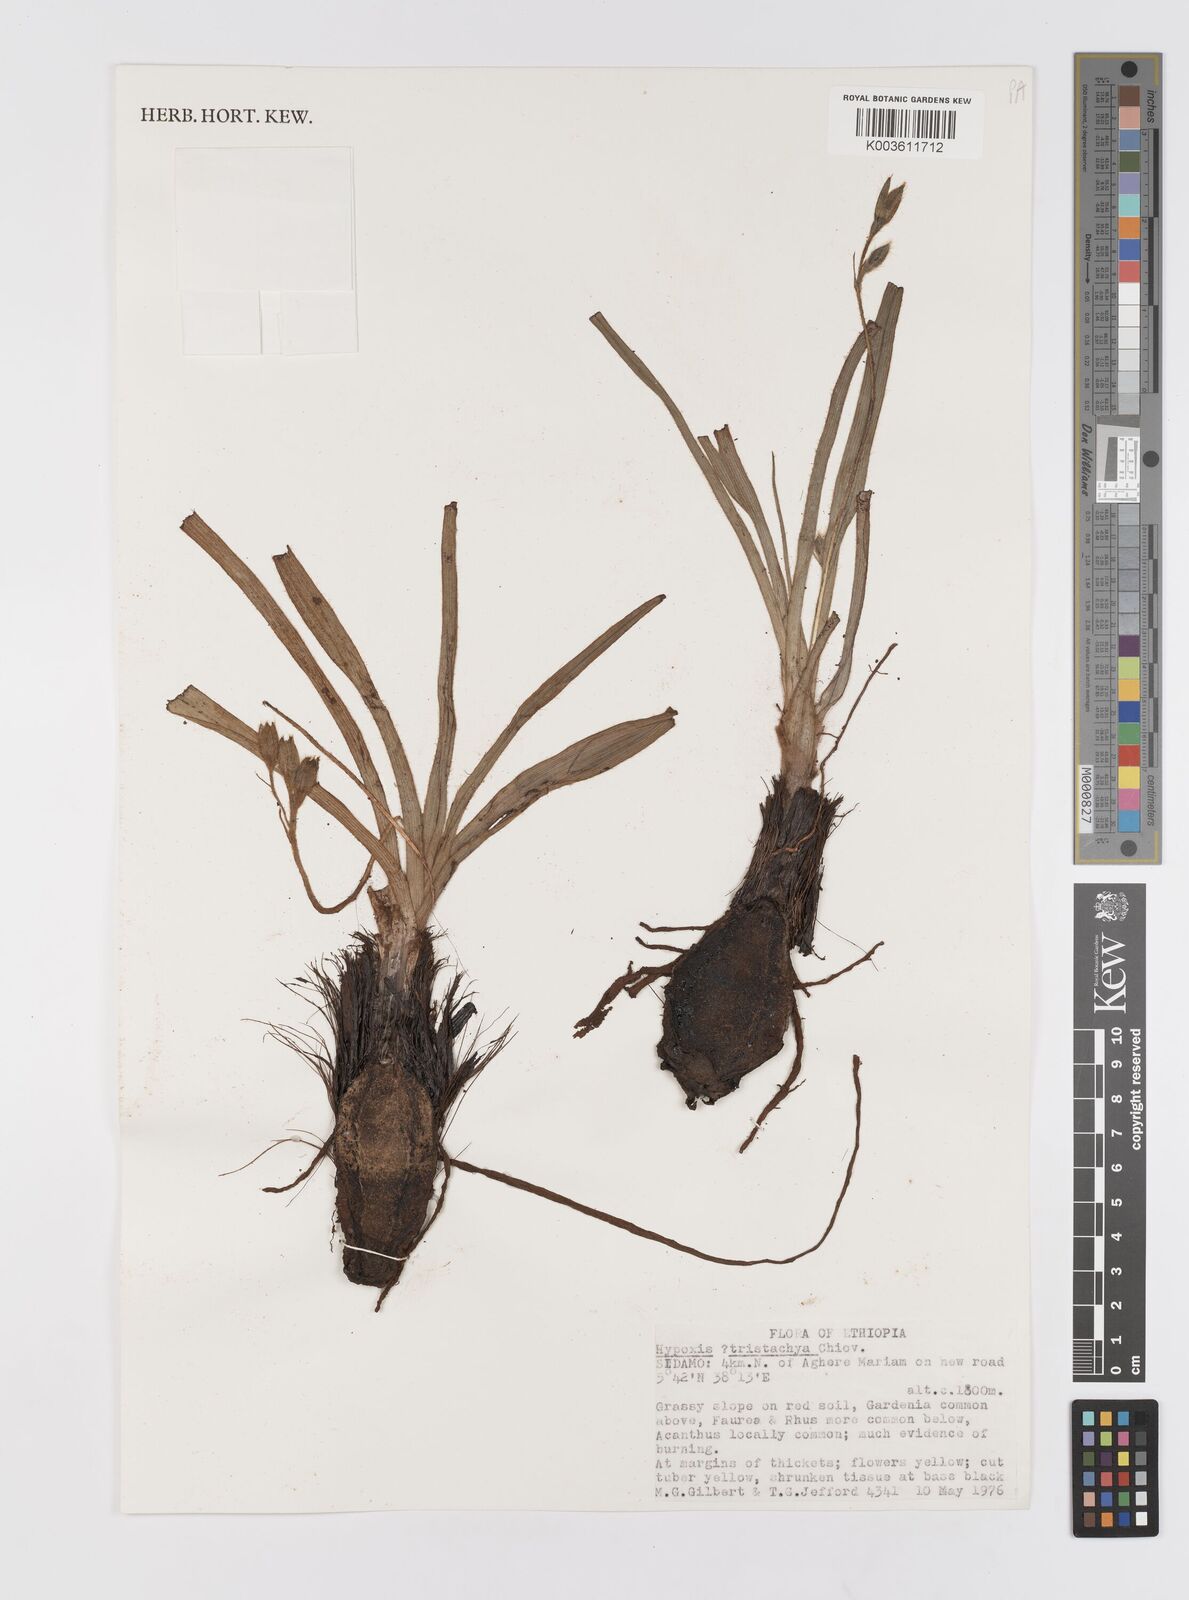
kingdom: Plantae
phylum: Tracheophyta
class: Liliopsida
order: Asparagales
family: Hypoxidaceae
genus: Hypoxis
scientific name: Hypoxis villosa
